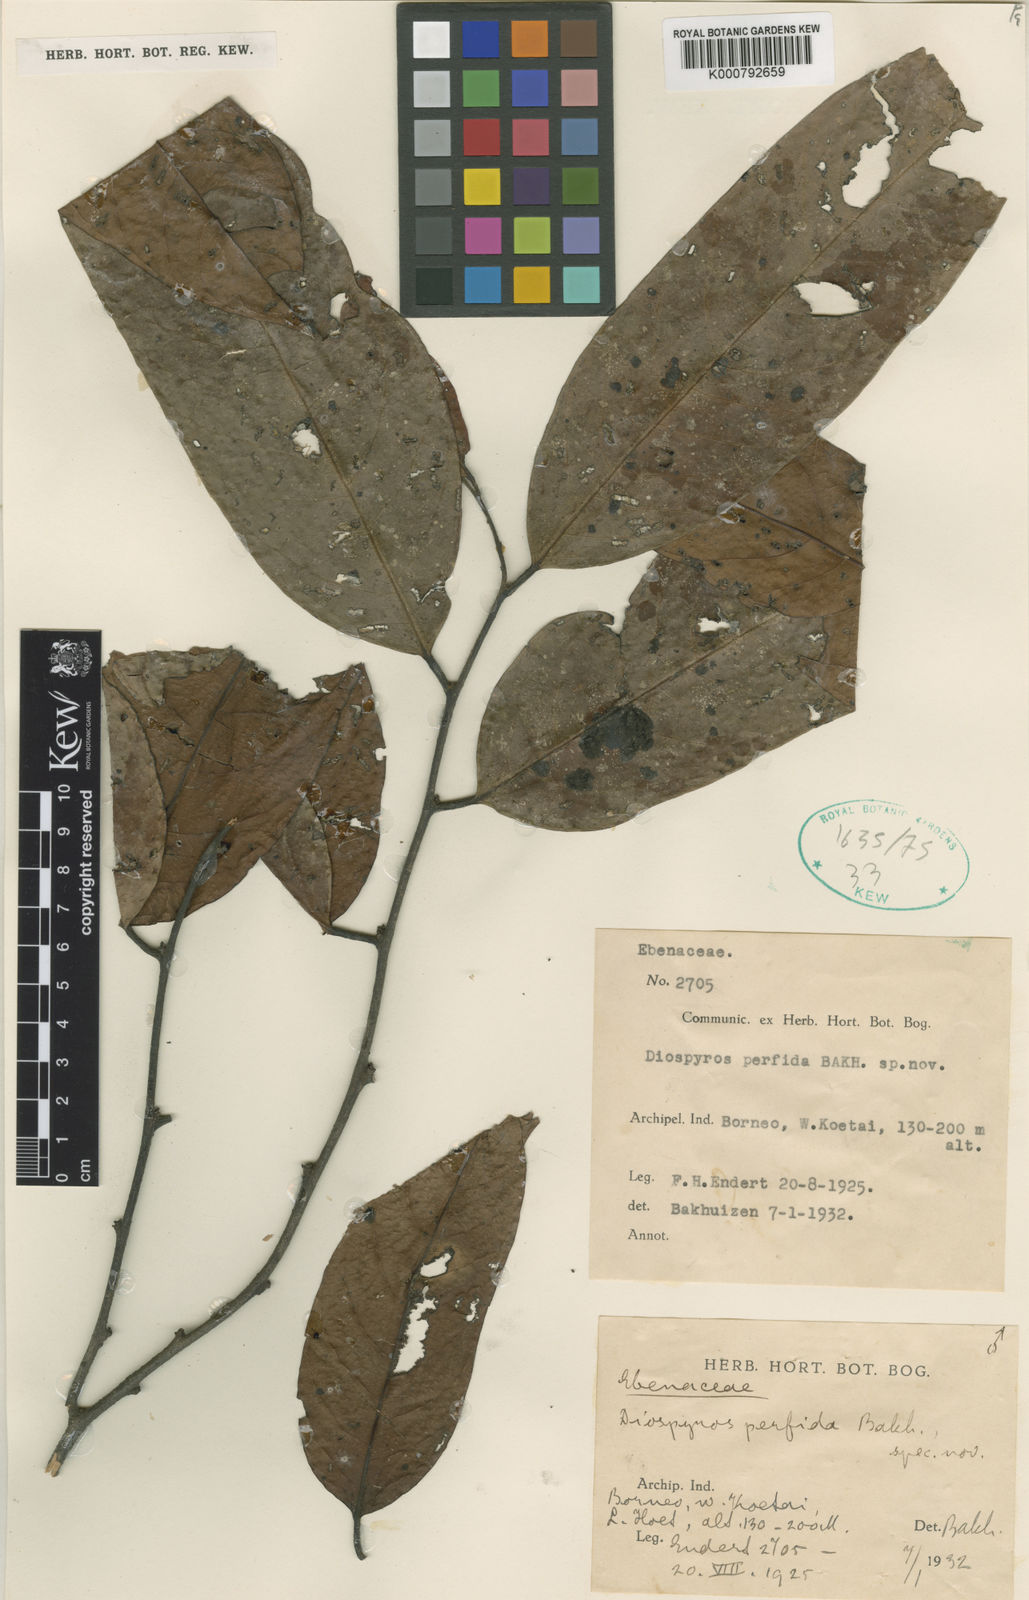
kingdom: Plantae
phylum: Tracheophyta
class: Magnoliopsida
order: Ericales
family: Ebenaceae
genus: Diospyros
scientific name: Diospyros perfida
